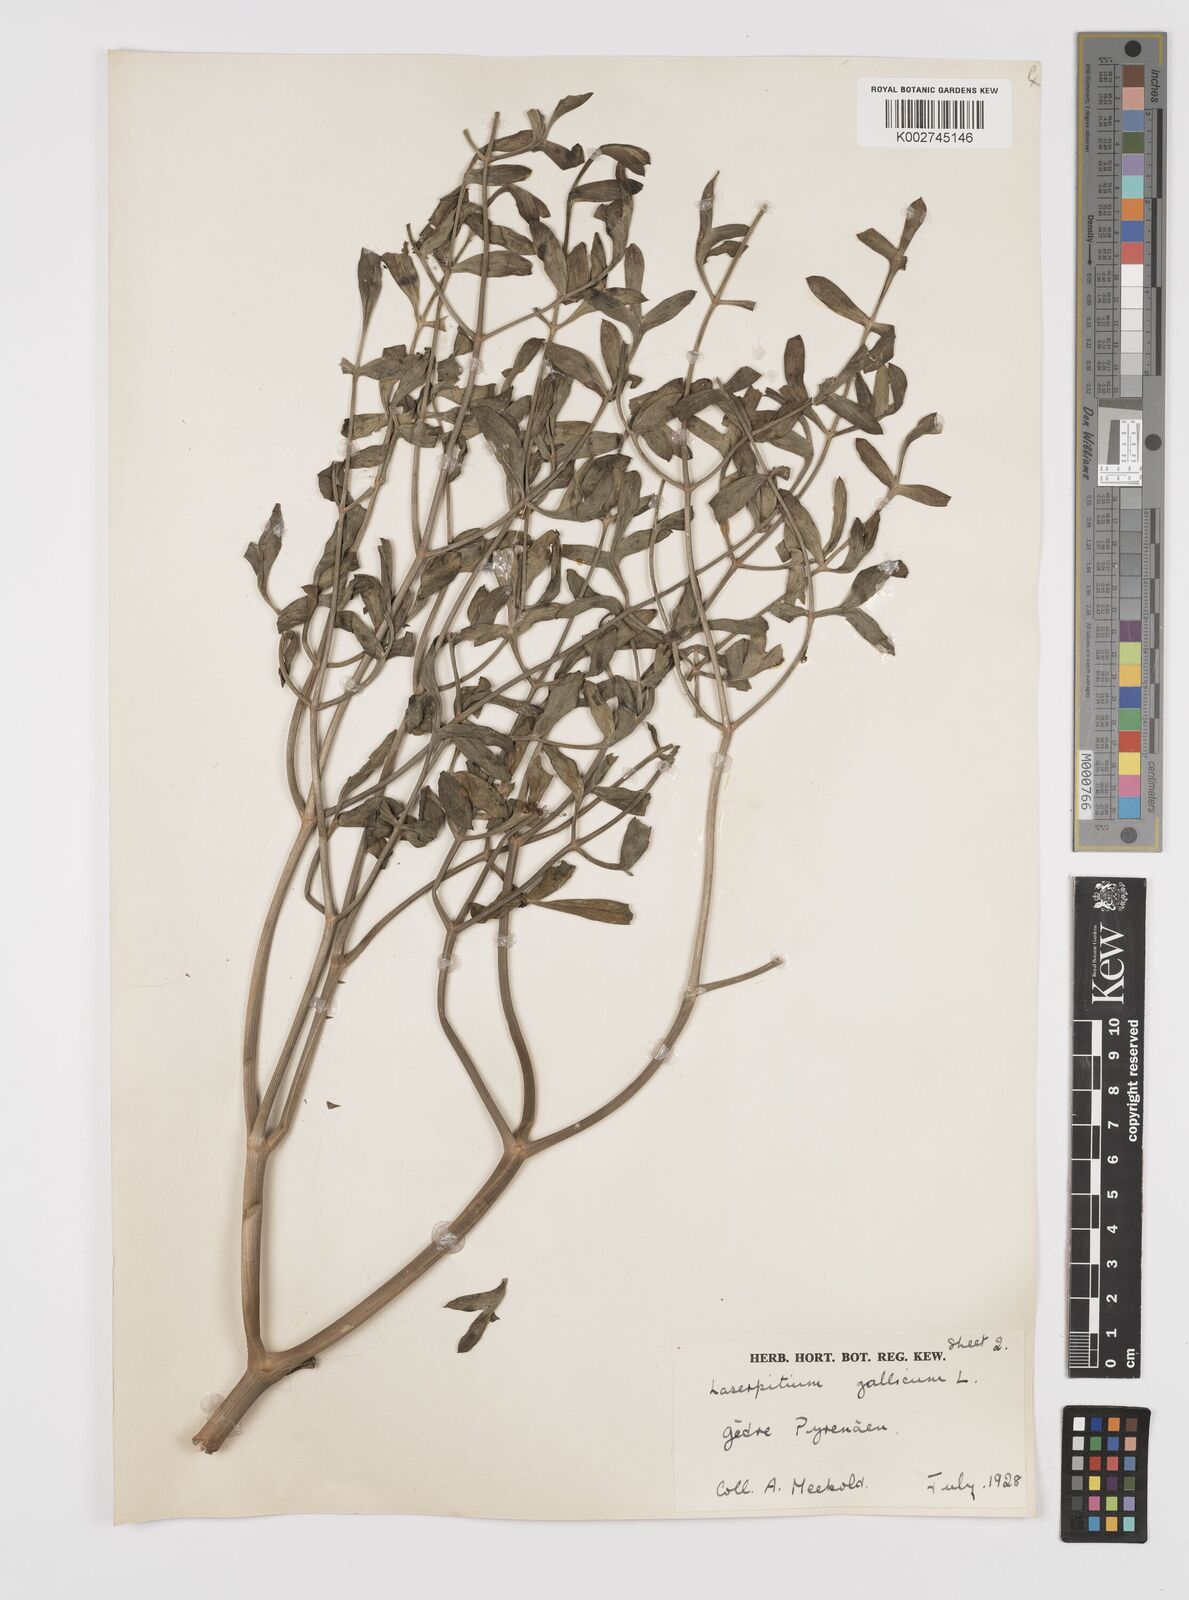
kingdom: Plantae
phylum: Tracheophyta
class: Magnoliopsida
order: Apiales
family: Apiaceae
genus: Laserpitium
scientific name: Laserpitium gallicum
